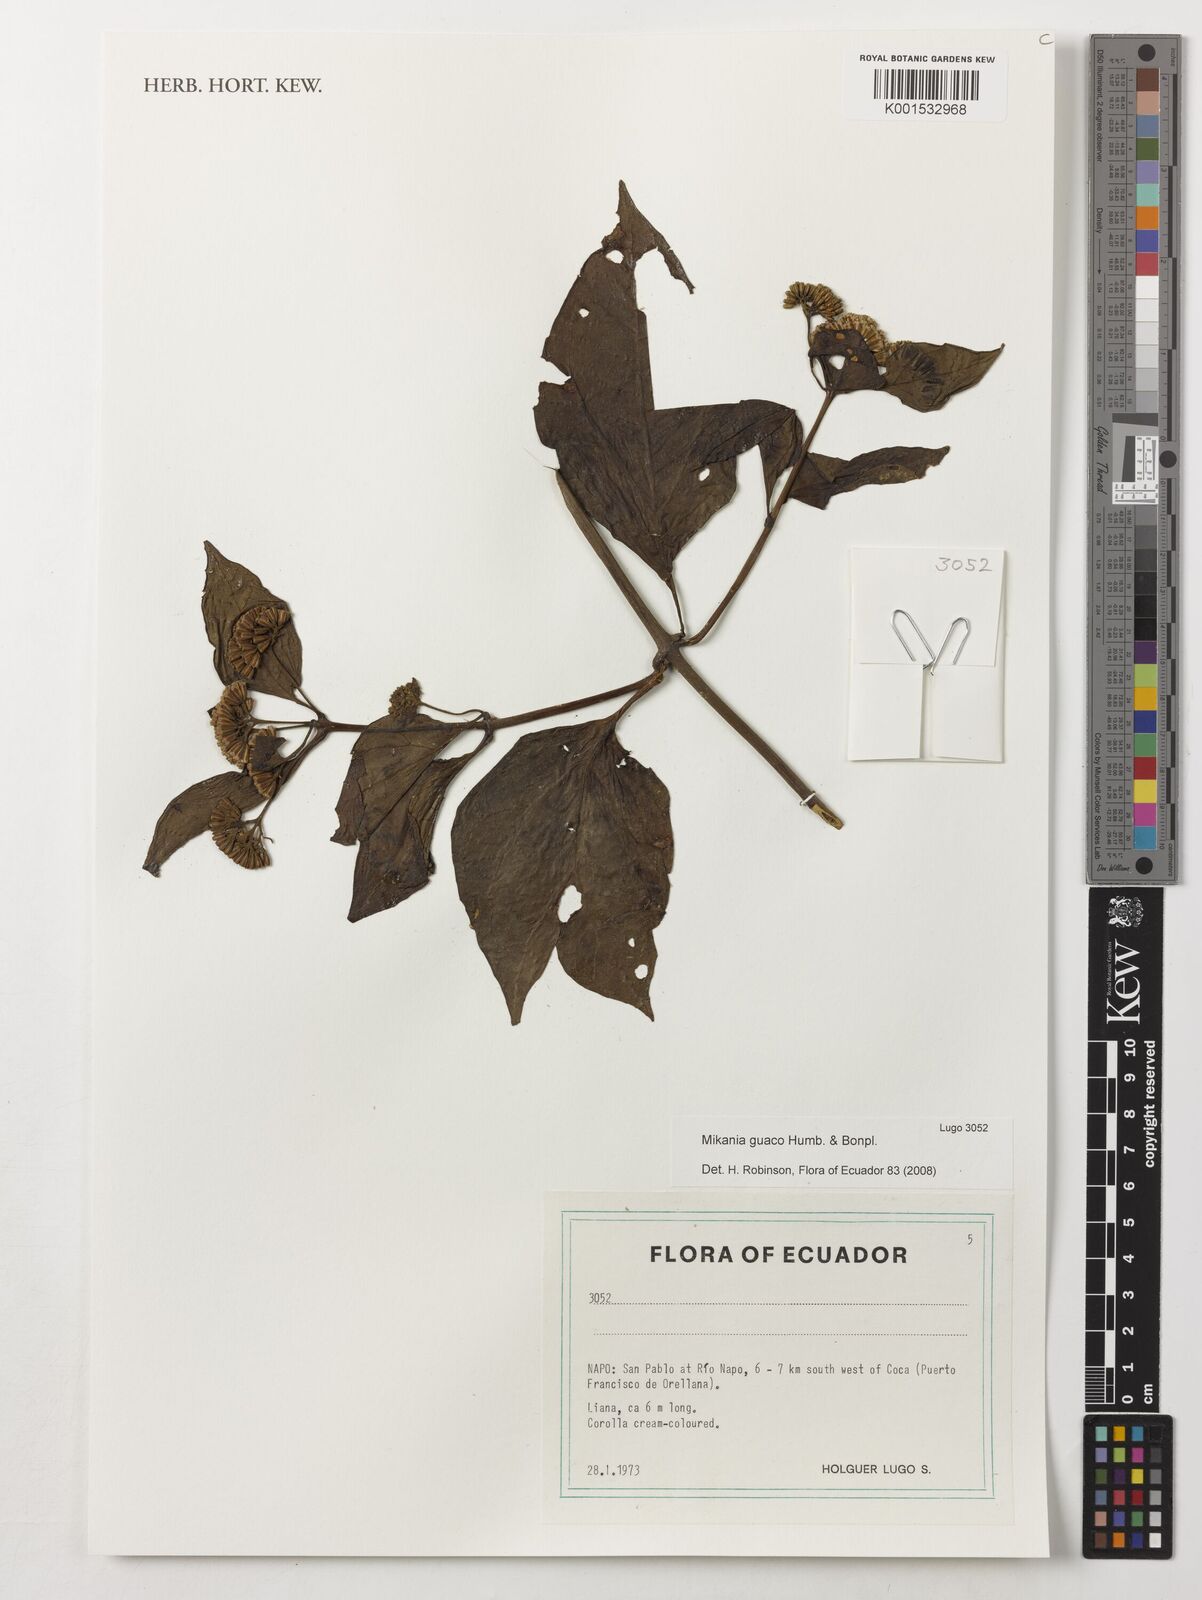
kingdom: Plantae
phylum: Tracheophyta
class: Magnoliopsida
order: Asterales
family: Asteraceae
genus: Mikania
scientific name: Mikania guaco
